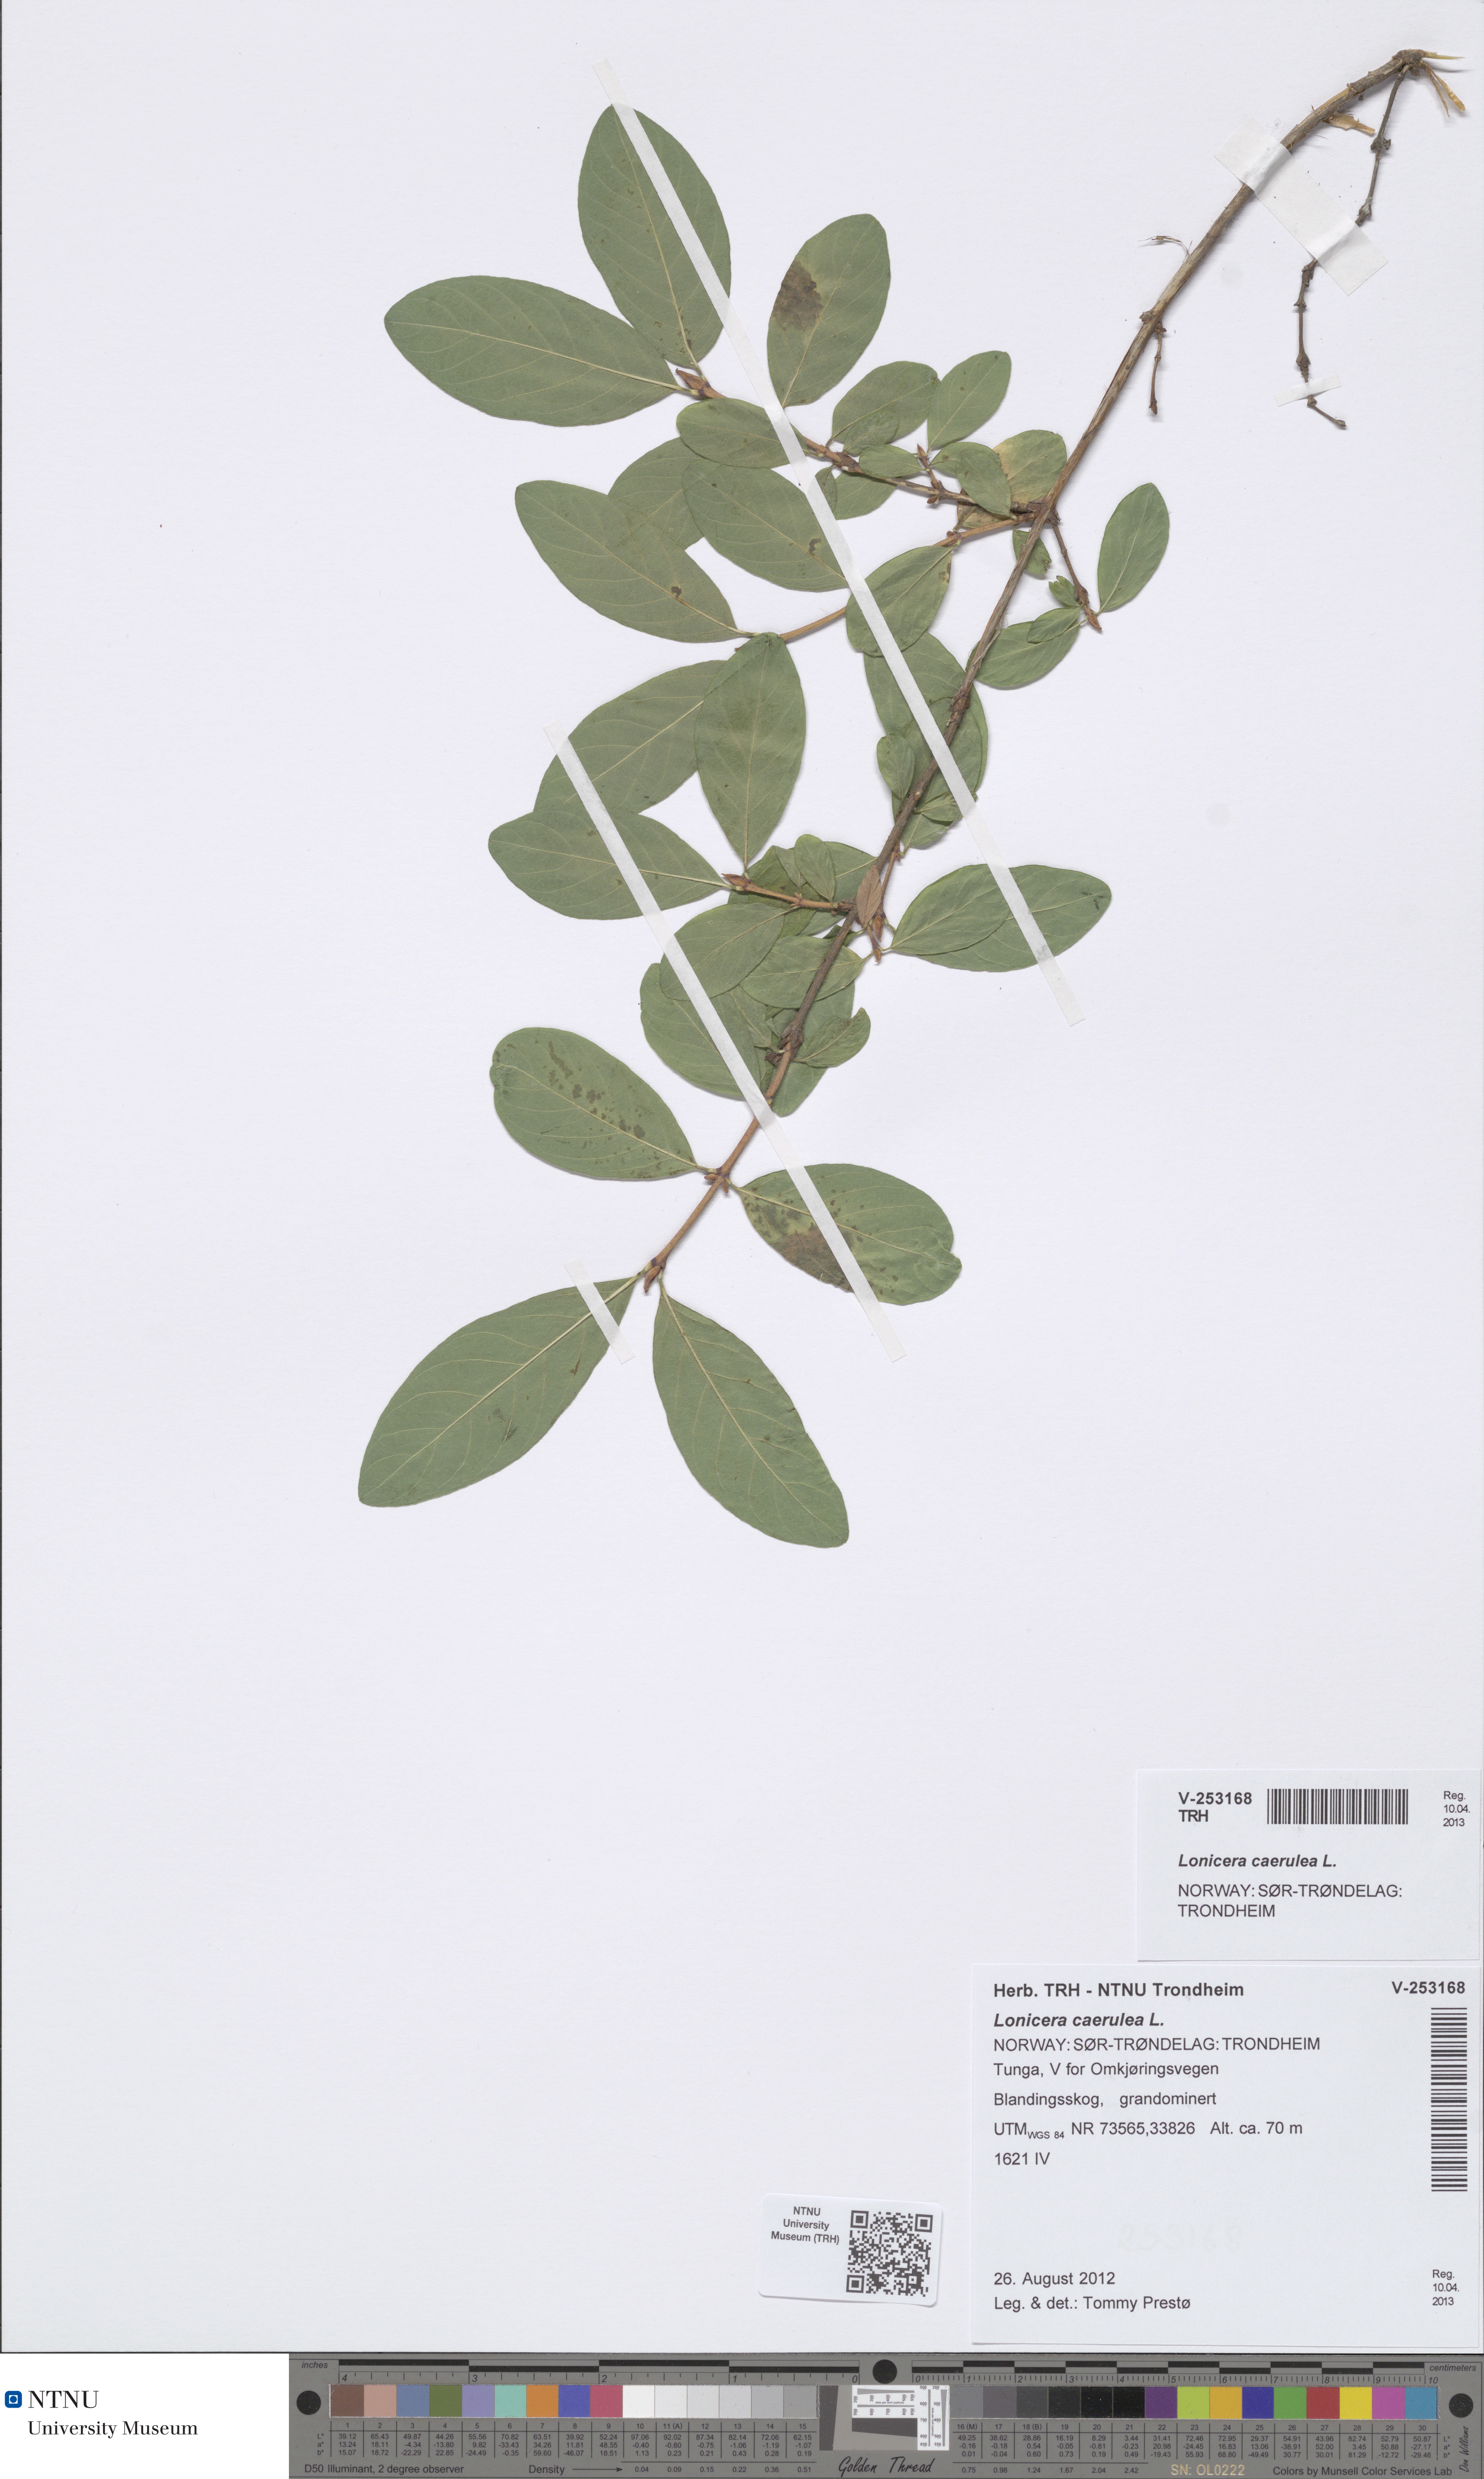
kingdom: Plantae
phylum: Tracheophyta
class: Magnoliopsida
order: Dipsacales
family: Caprifoliaceae
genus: Lonicera
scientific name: Lonicera caerulea
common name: Blue honeysuckle
